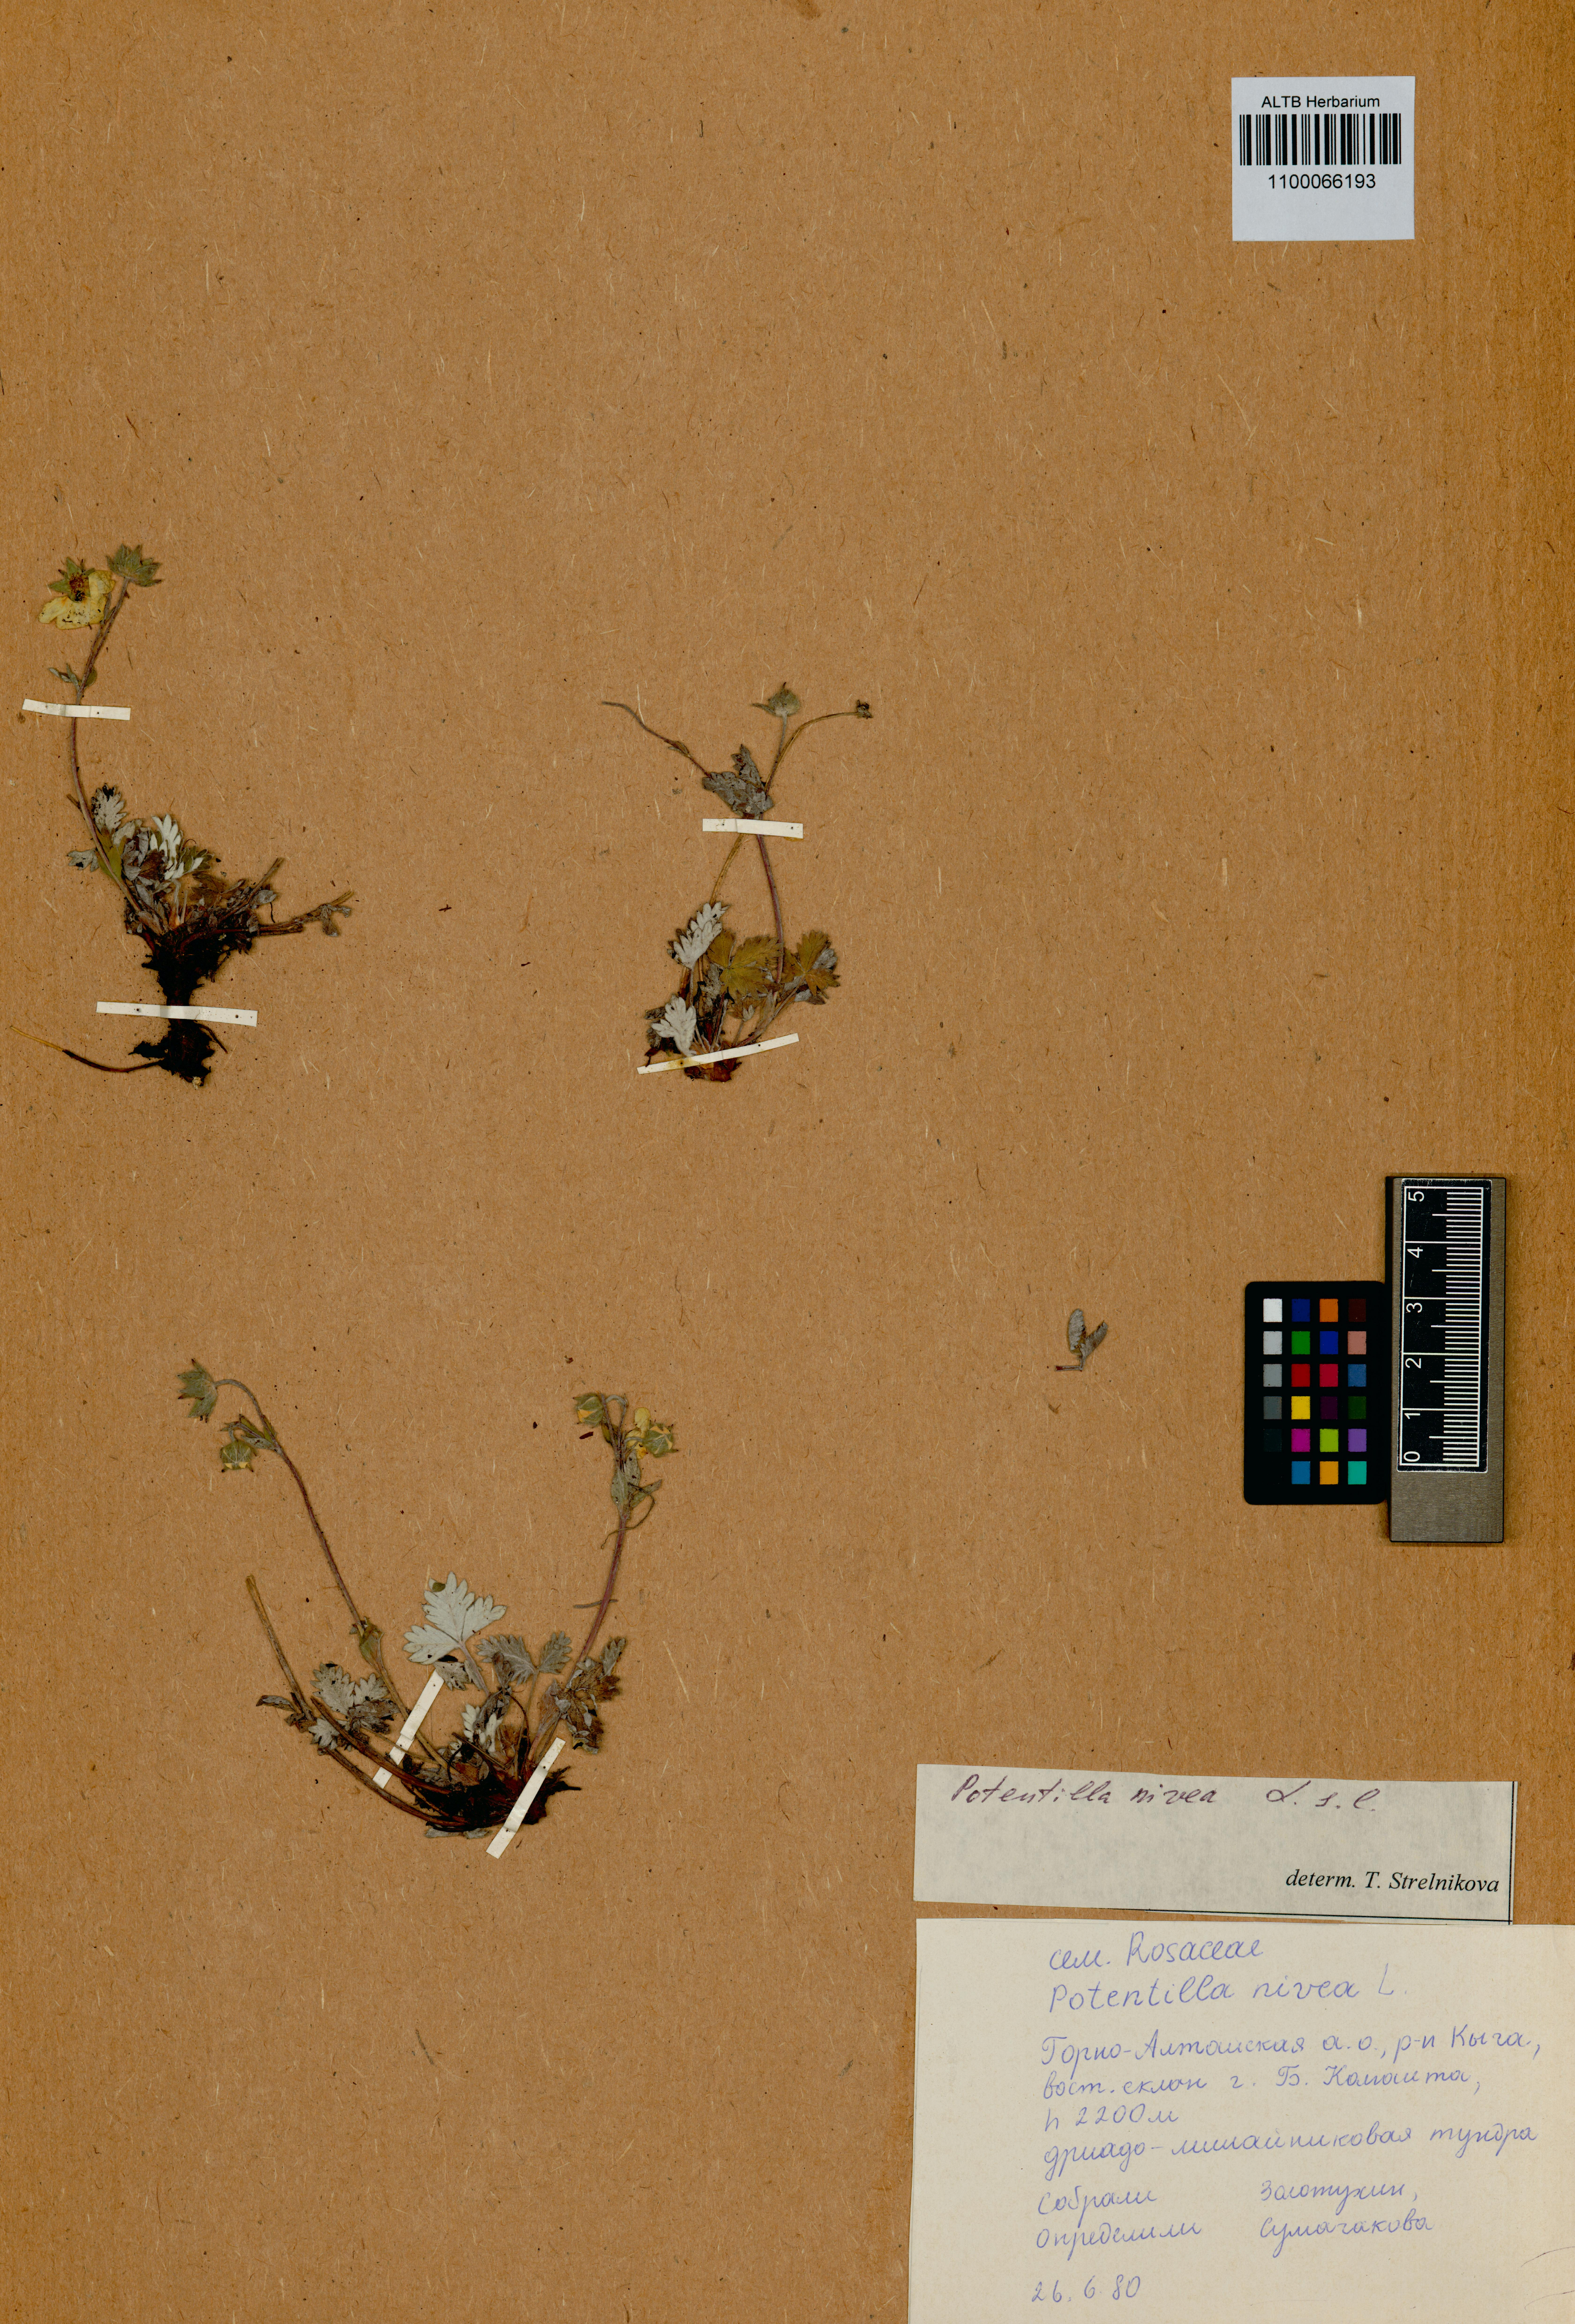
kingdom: Plantae
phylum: Tracheophyta
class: Magnoliopsida
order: Rosales
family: Rosaceae
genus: Potentilla
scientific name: Potentilla nivea
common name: Snow cinquefoil
